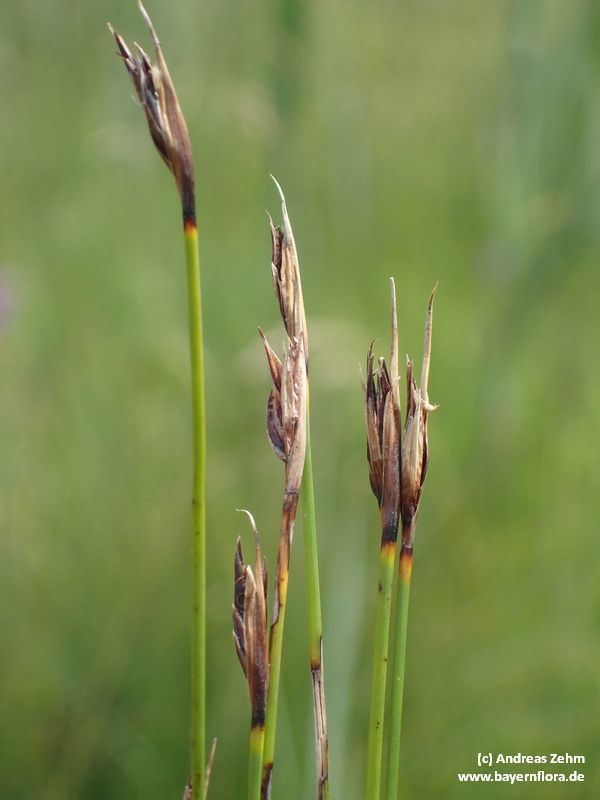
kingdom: Plantae
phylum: Tracheophyta
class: Liliopsida
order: Poales
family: Cyperaceae
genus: Schoenus
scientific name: Schoenus nigricans
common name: Black bog-rush
